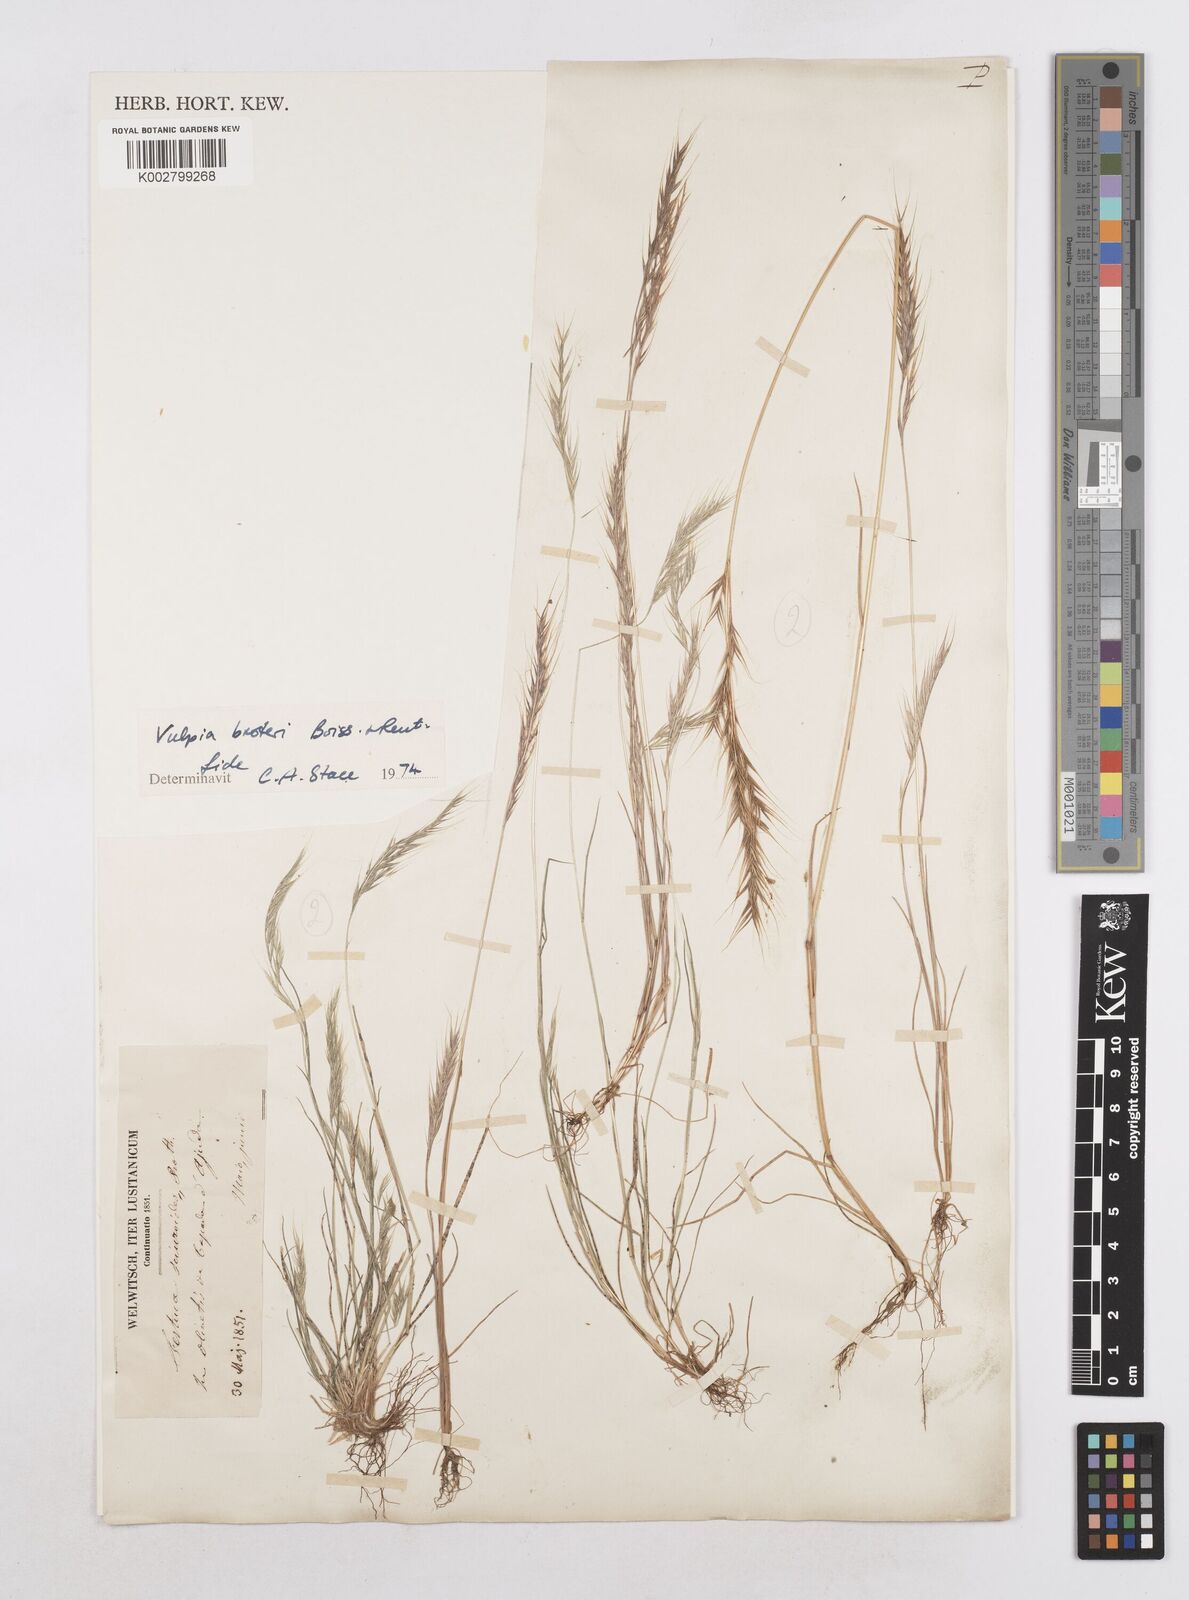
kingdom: Plantae
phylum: Tracheophyta
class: Liliopsida
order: Poales
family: Poaceae
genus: Festuca
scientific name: Festuca muralis
